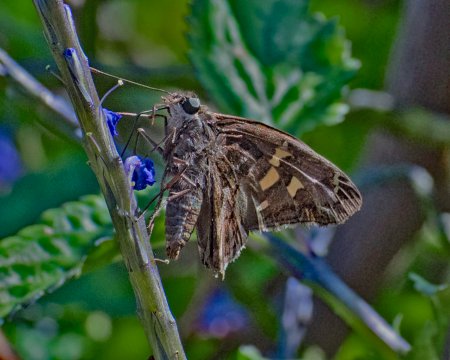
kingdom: Animalia
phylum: Arthropoda
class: Insecta
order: Lepidoptera
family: Hesperiidae
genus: Chioides
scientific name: Chioides catillus
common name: Blurry-striped Longtail
